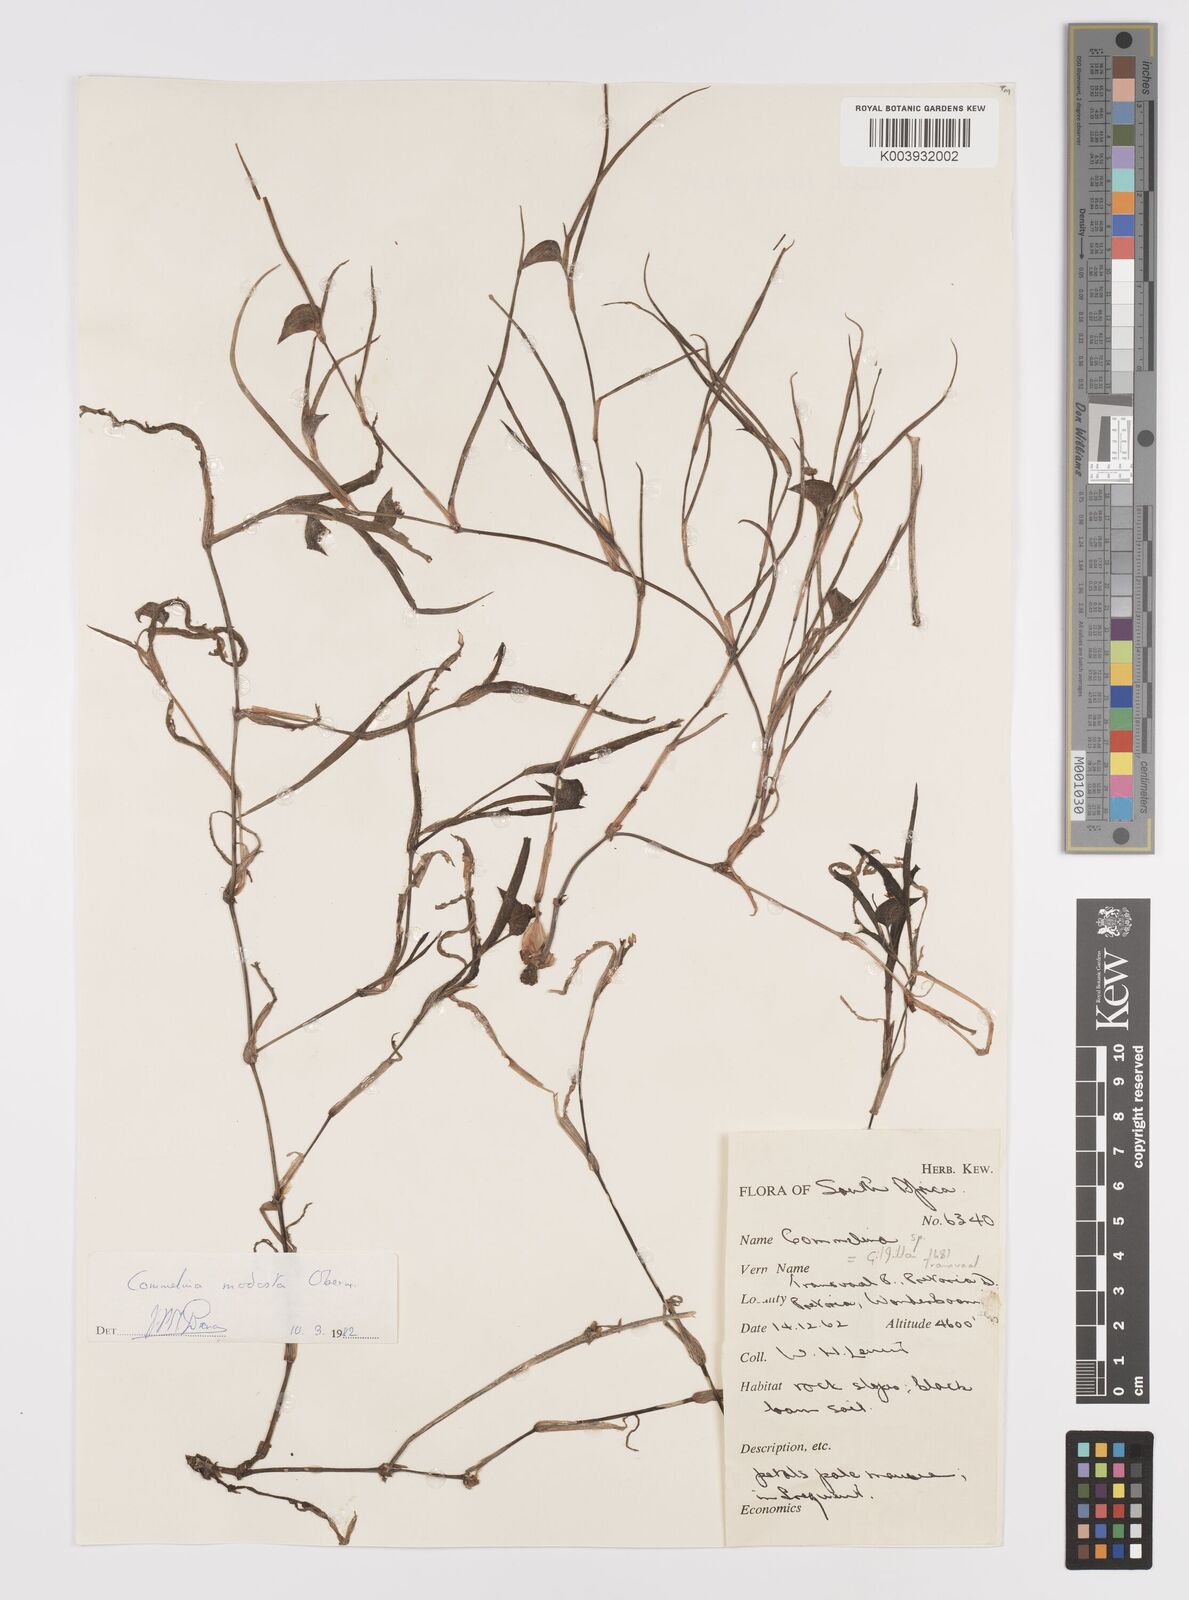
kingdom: Plantae
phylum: Tracheophyta
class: Liliopsida
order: Commelinales
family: Commelinaceae
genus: Commelina
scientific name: Commelina modesta
